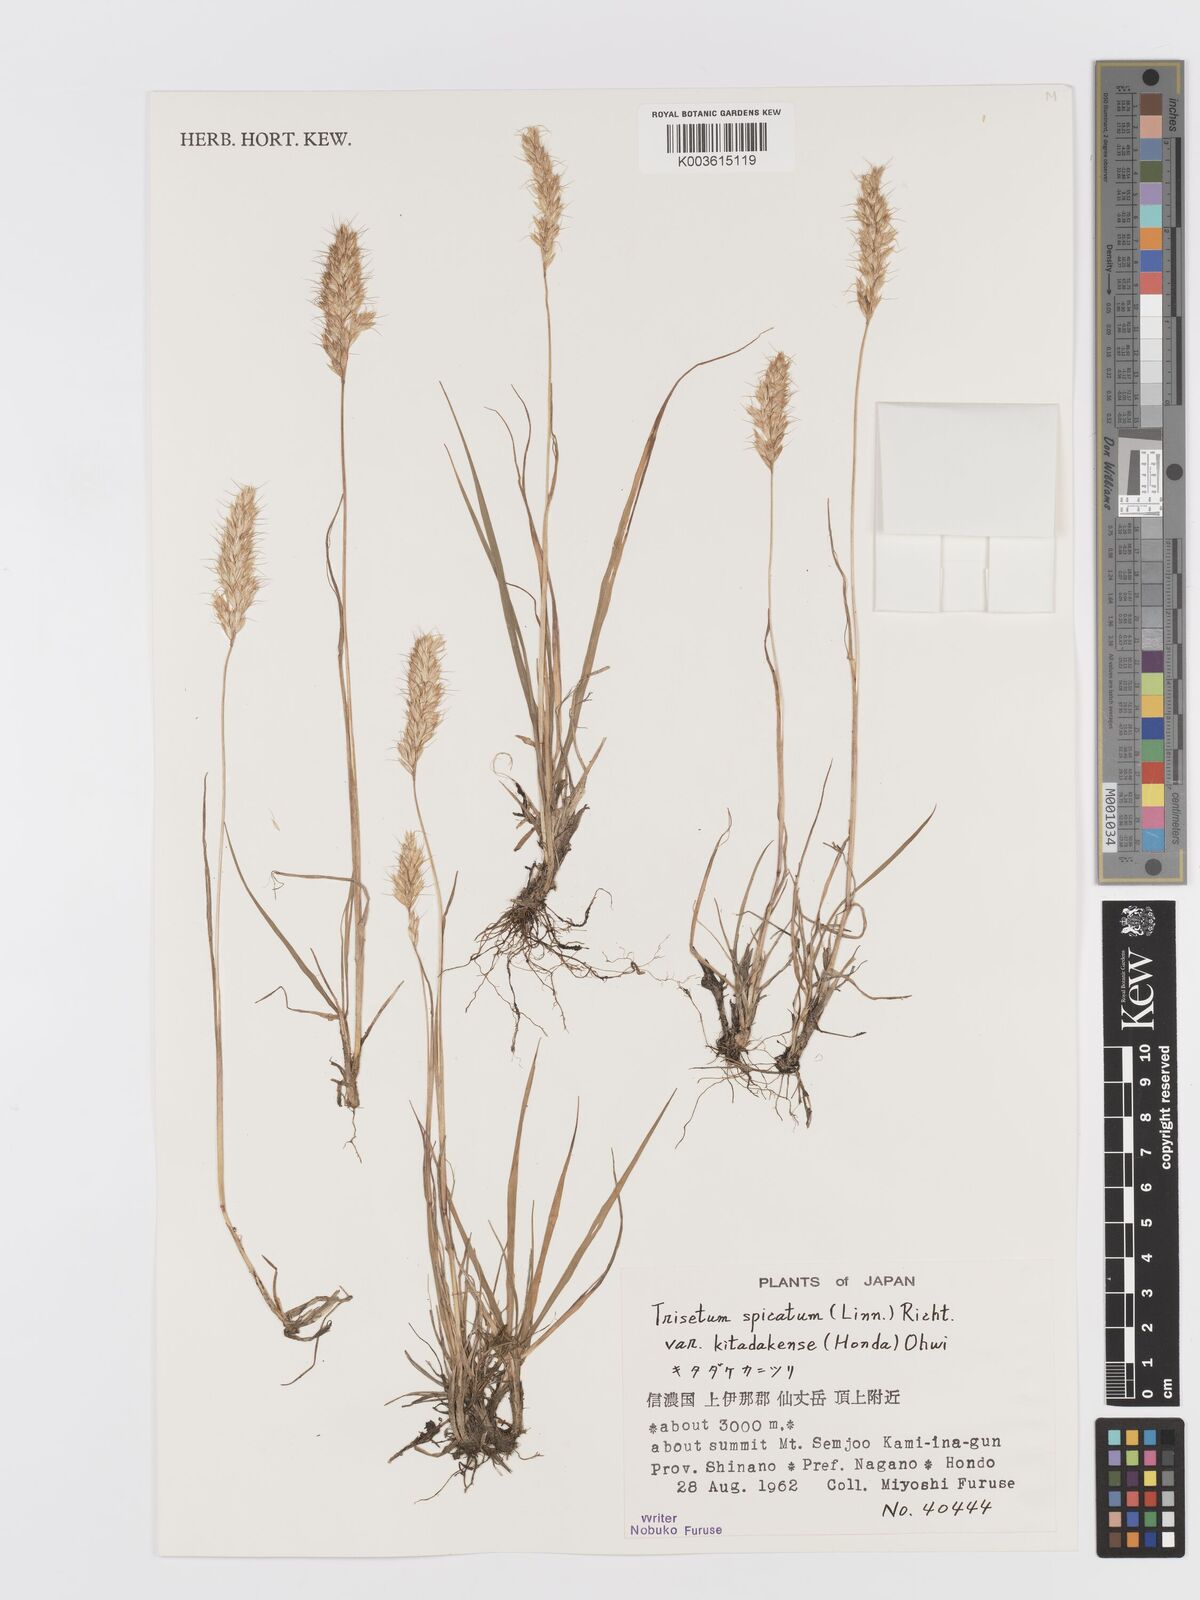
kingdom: Plantae
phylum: Tracheophyta
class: Liliopsida
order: Poales
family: Poaceae
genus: Koeleria
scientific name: Koeleria spicata
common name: Mountain trisetum
